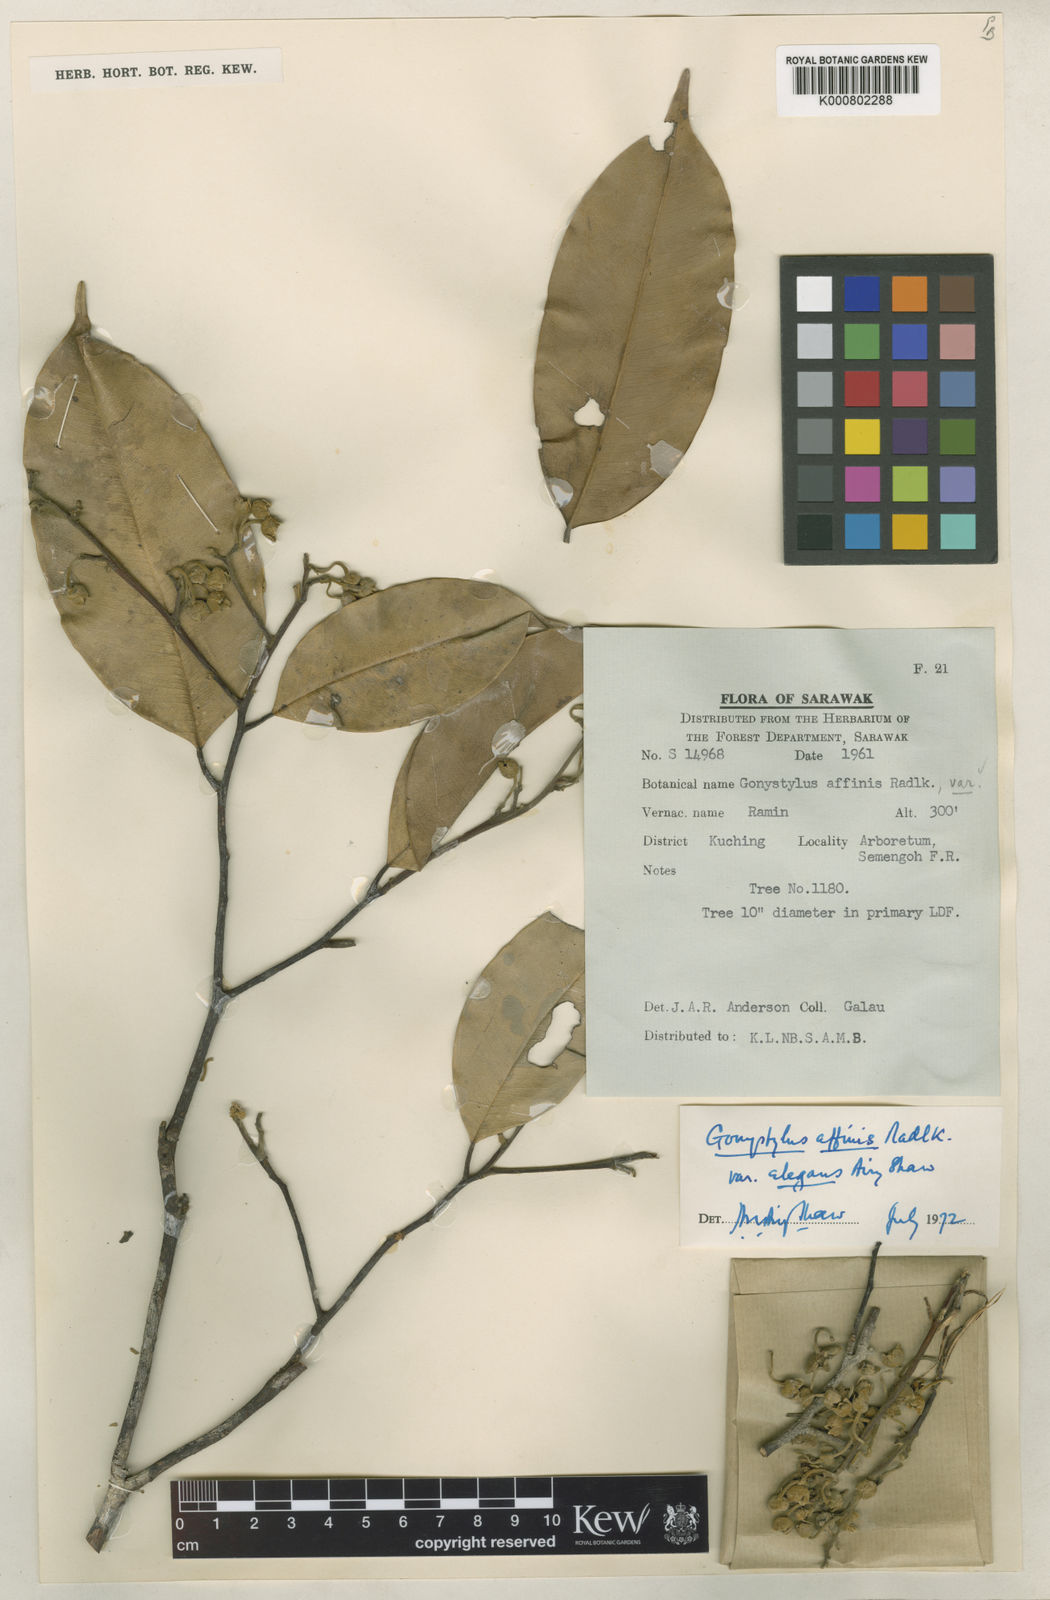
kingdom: Plantae
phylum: Tracheophyta
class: Magnoliopsida
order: Malvales
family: Thymelaeaceae
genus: Gonystylus
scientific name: Gonystylus affinis
